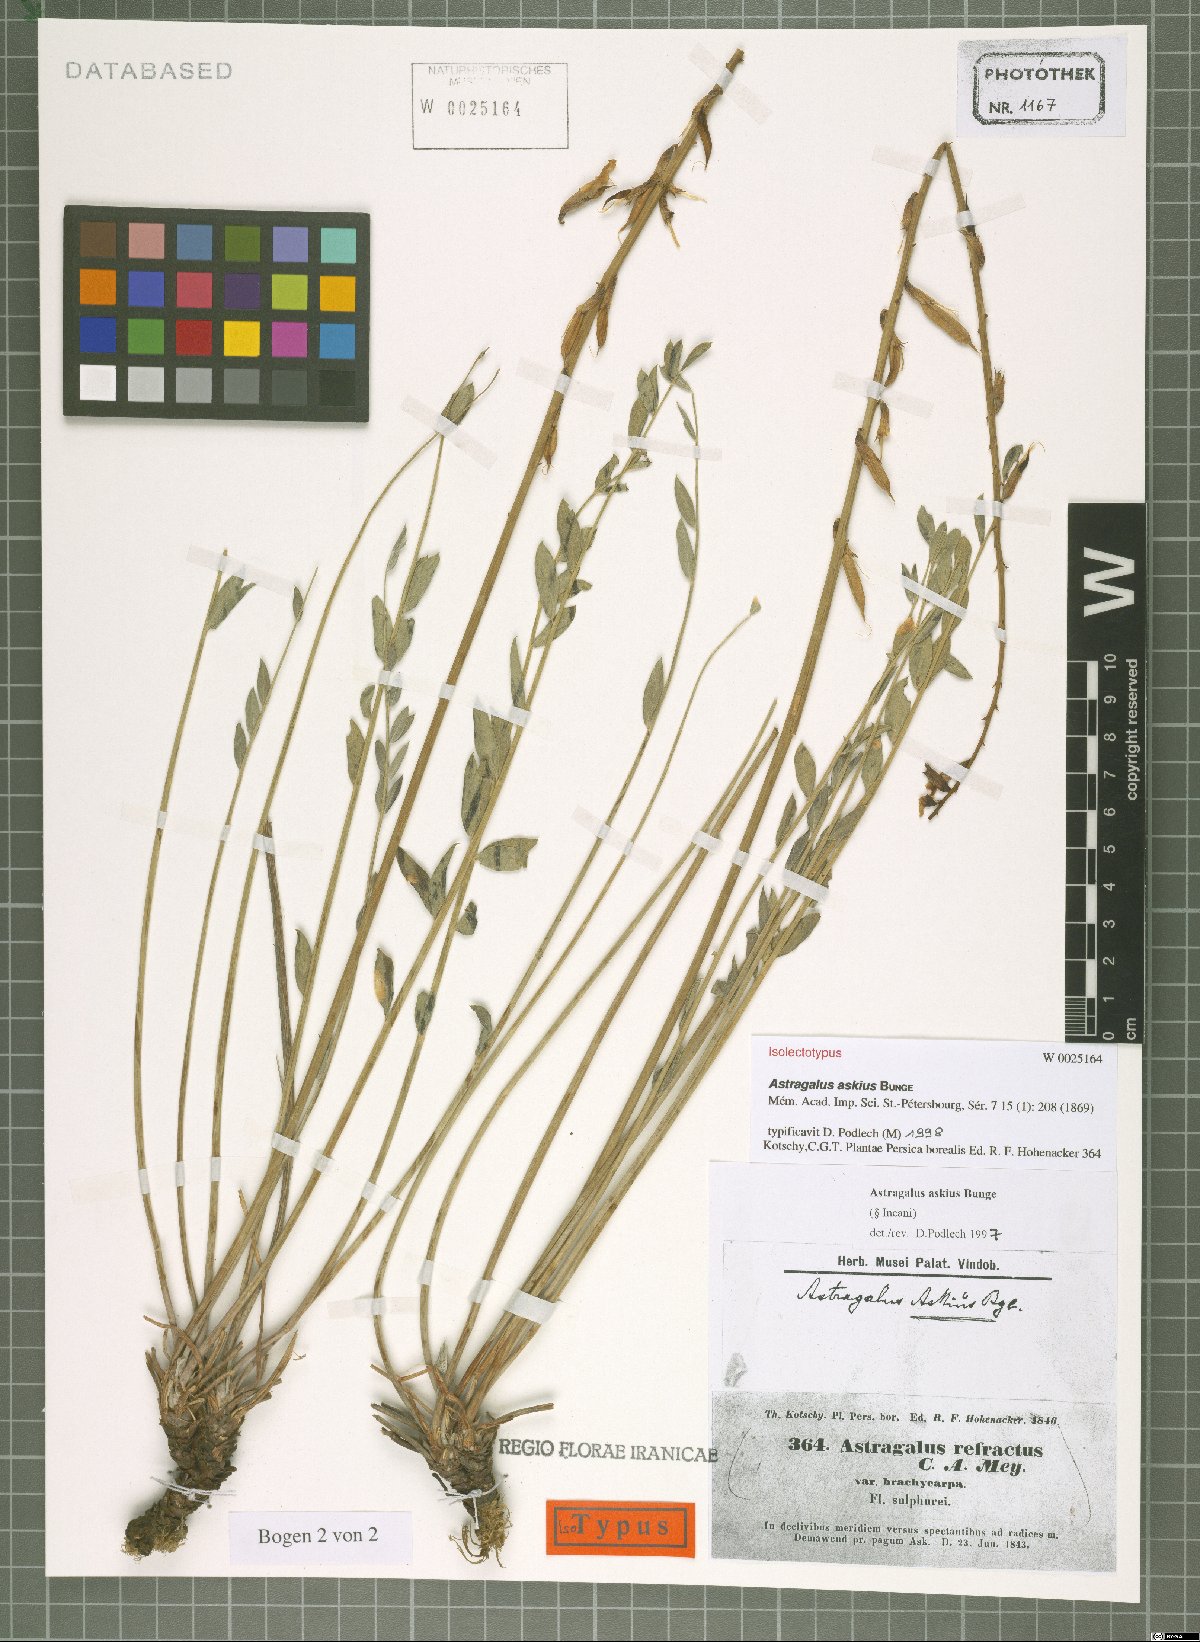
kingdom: Plantae
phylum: Tracheophyta
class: Magnoliopsida
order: Fabales
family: Fabaceae
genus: Astragalus
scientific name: Astragalus askius
